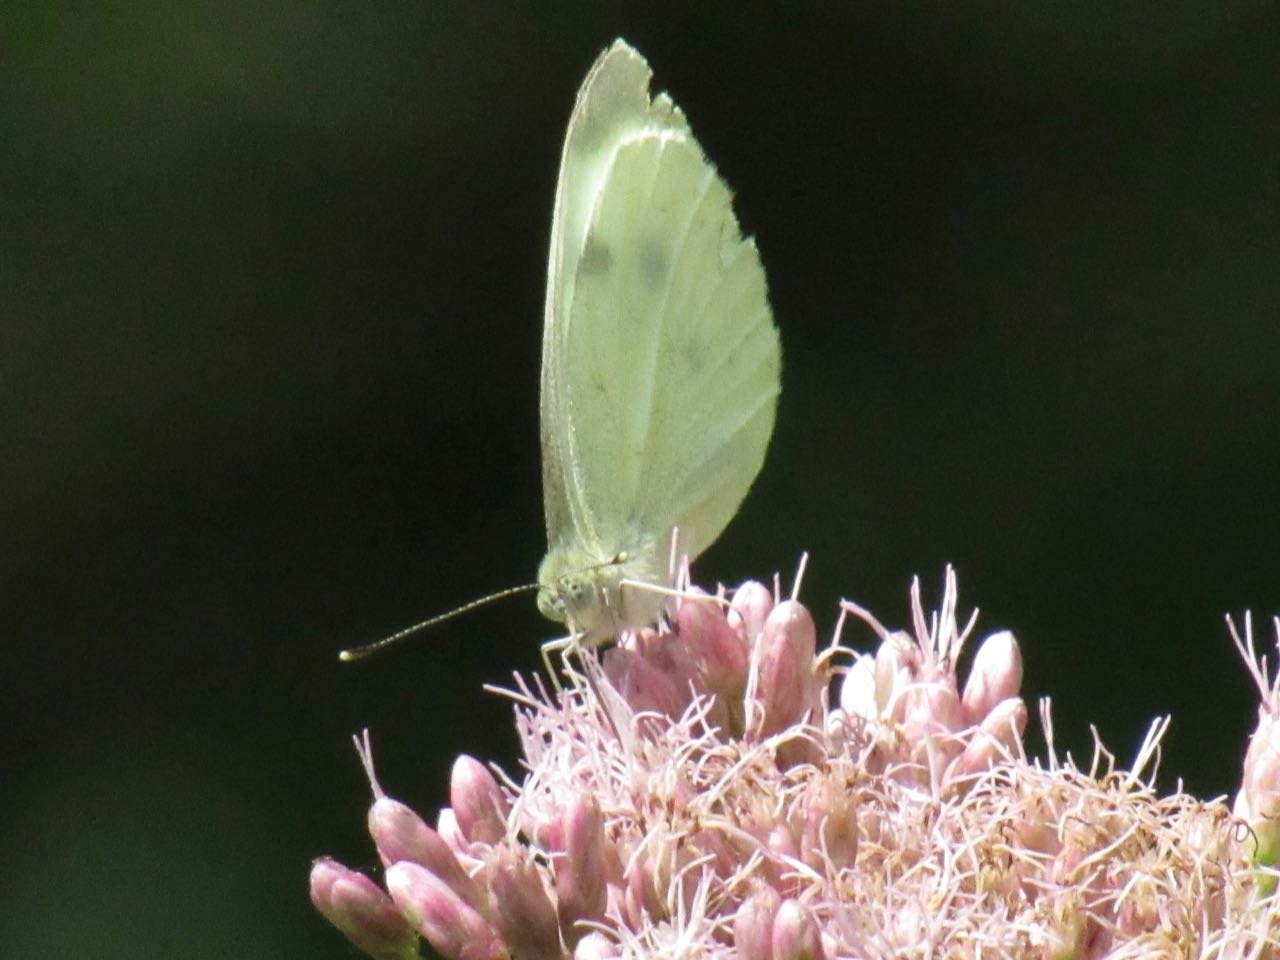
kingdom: Animalia
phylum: Arthropoda
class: Insecta
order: Lepidoptera
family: Pieridae
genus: Pieris
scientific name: Pieris rapae
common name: Cabbage White
